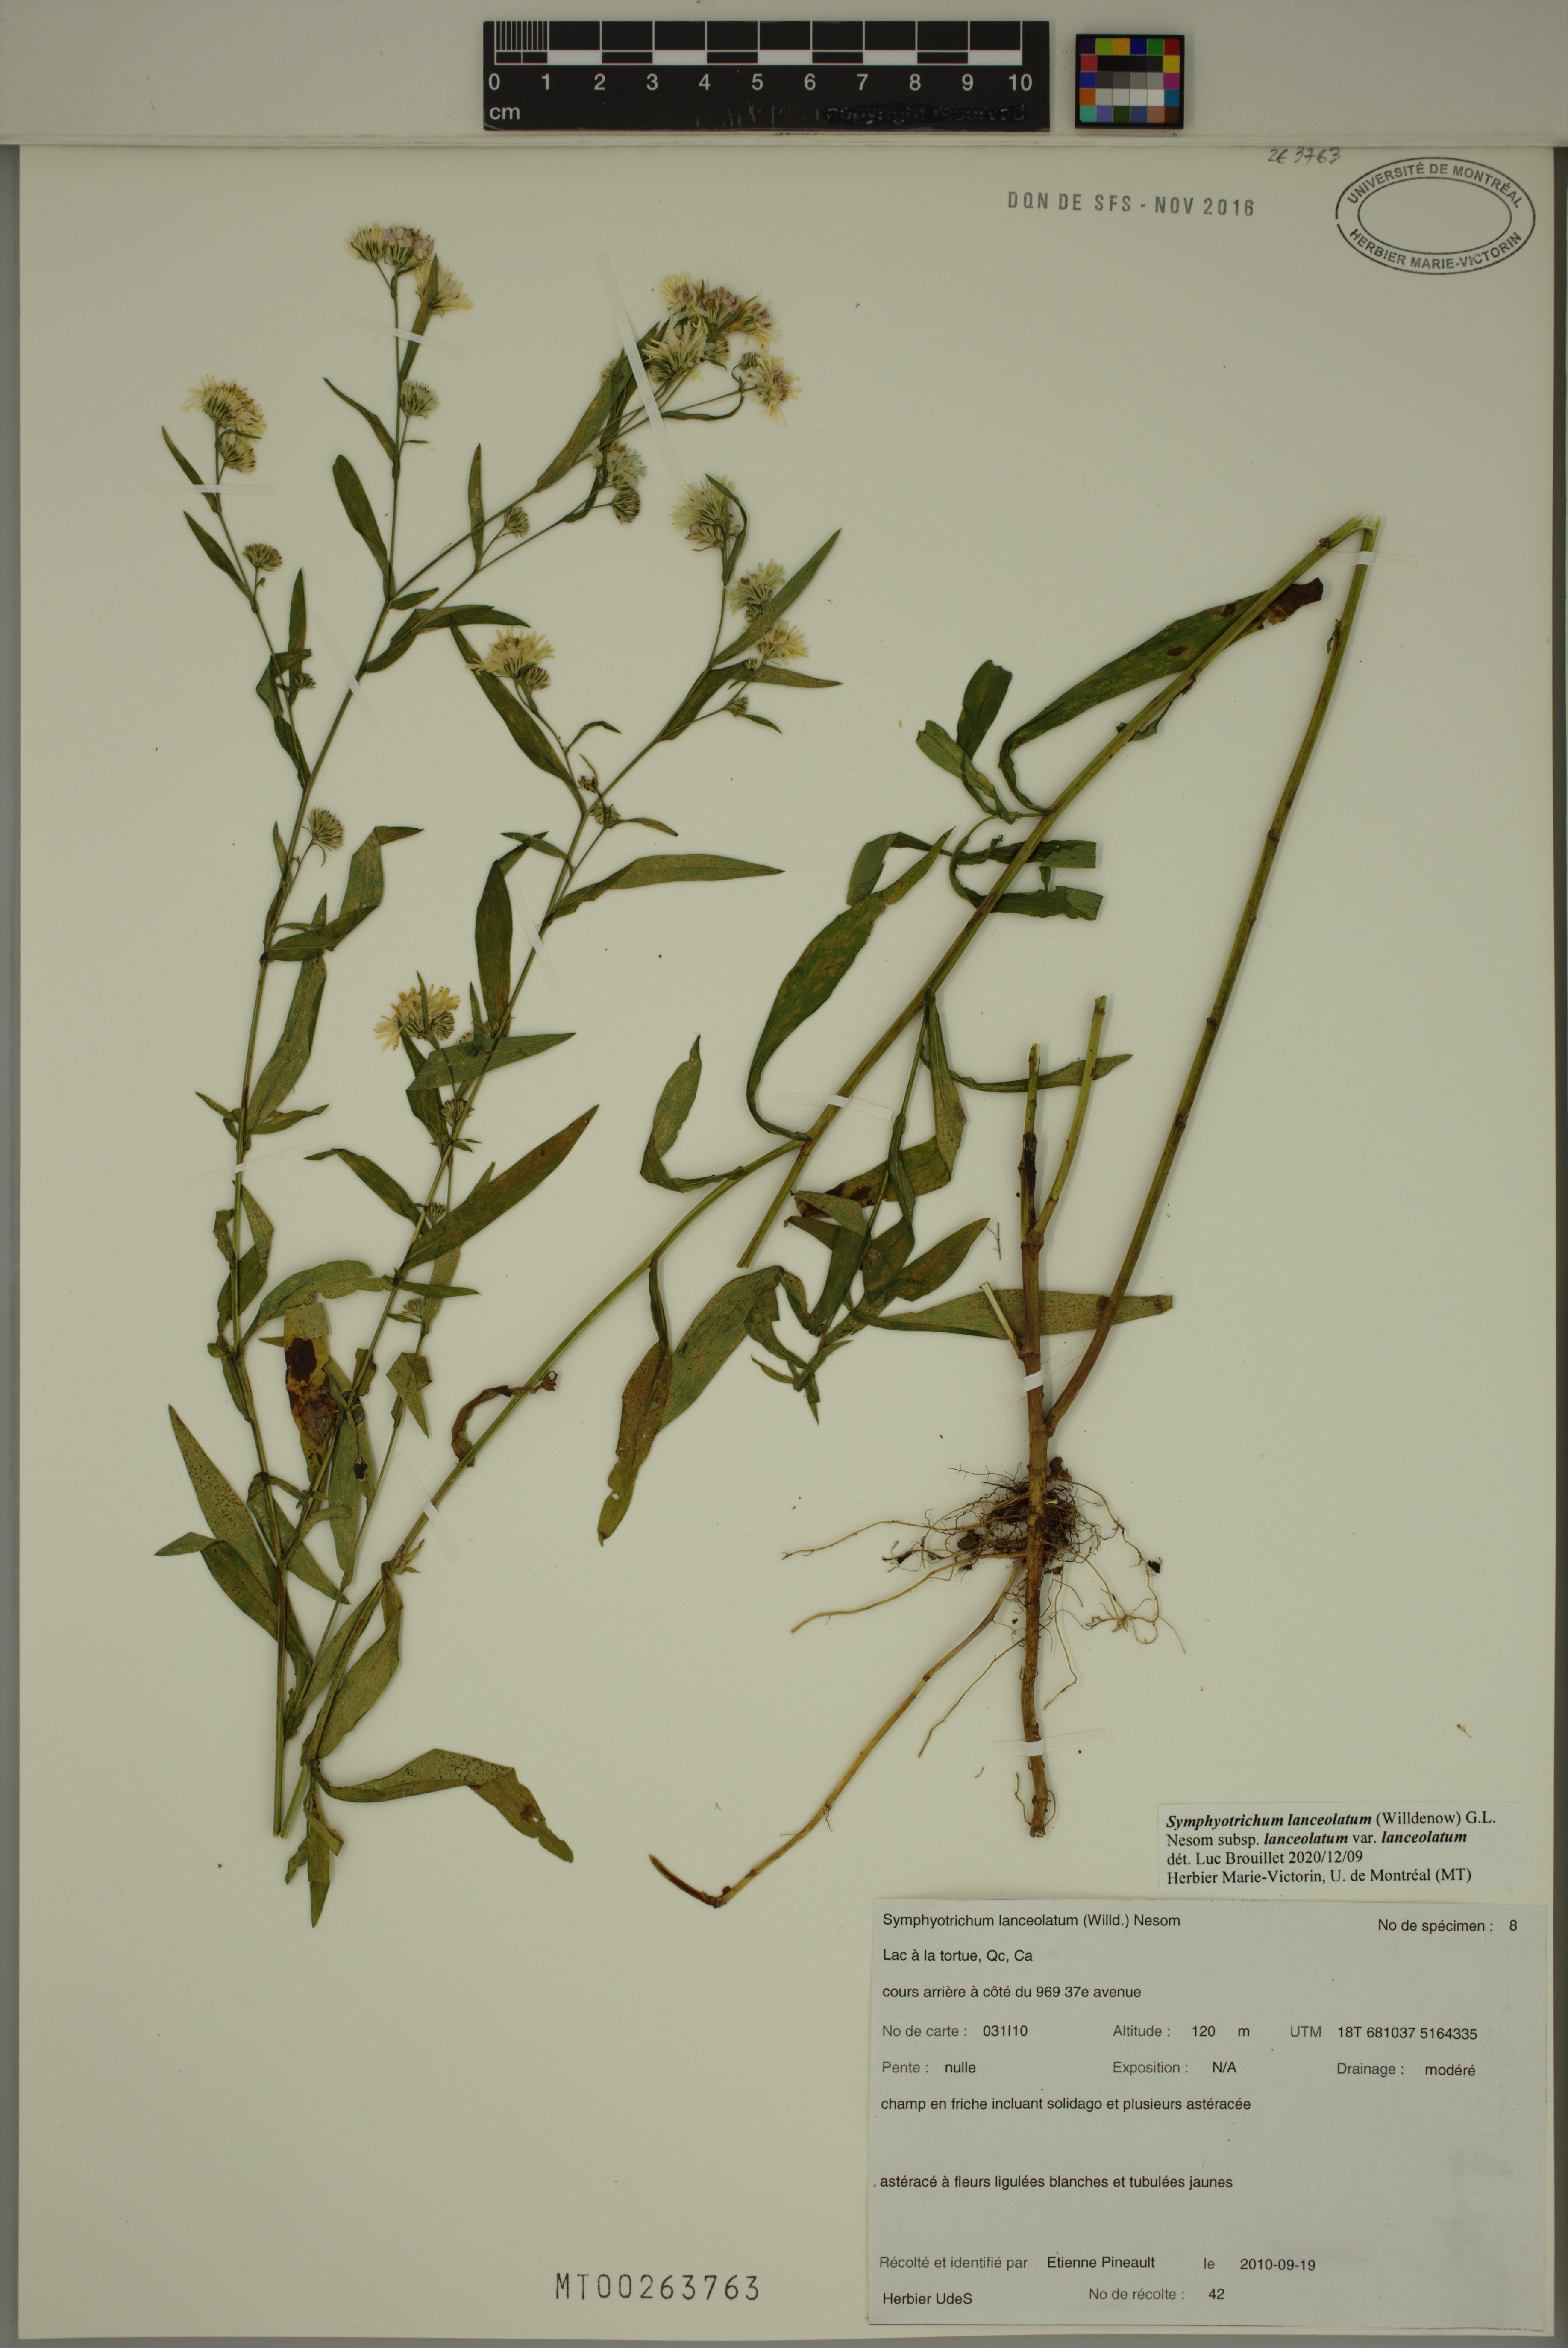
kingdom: Plantae
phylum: Tracheophyta
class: Magnoliopsida
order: Asterales
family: Asteraceae
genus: Symphyotrichum
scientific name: Symphyotrichum lanceolatum
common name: Panicled aster
